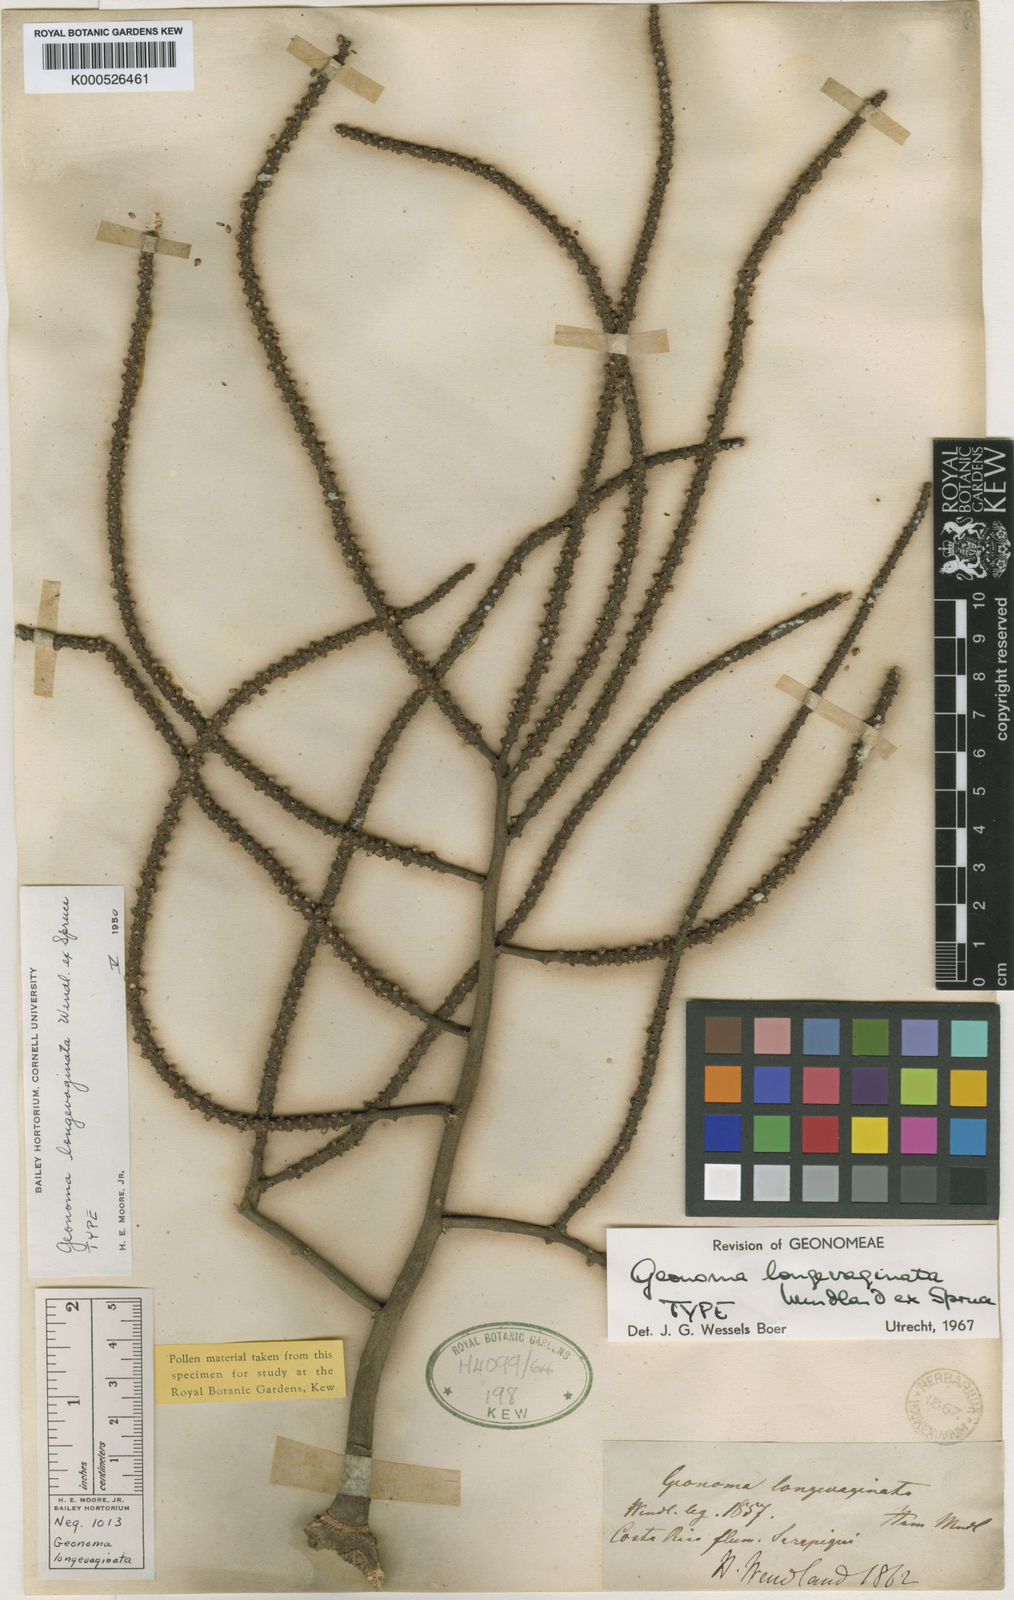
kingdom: Plantae
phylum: Tracheophyta
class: Liliopsida
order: Arecales
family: Arecaceae
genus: Geonoma
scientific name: Geonoma longivaginata
